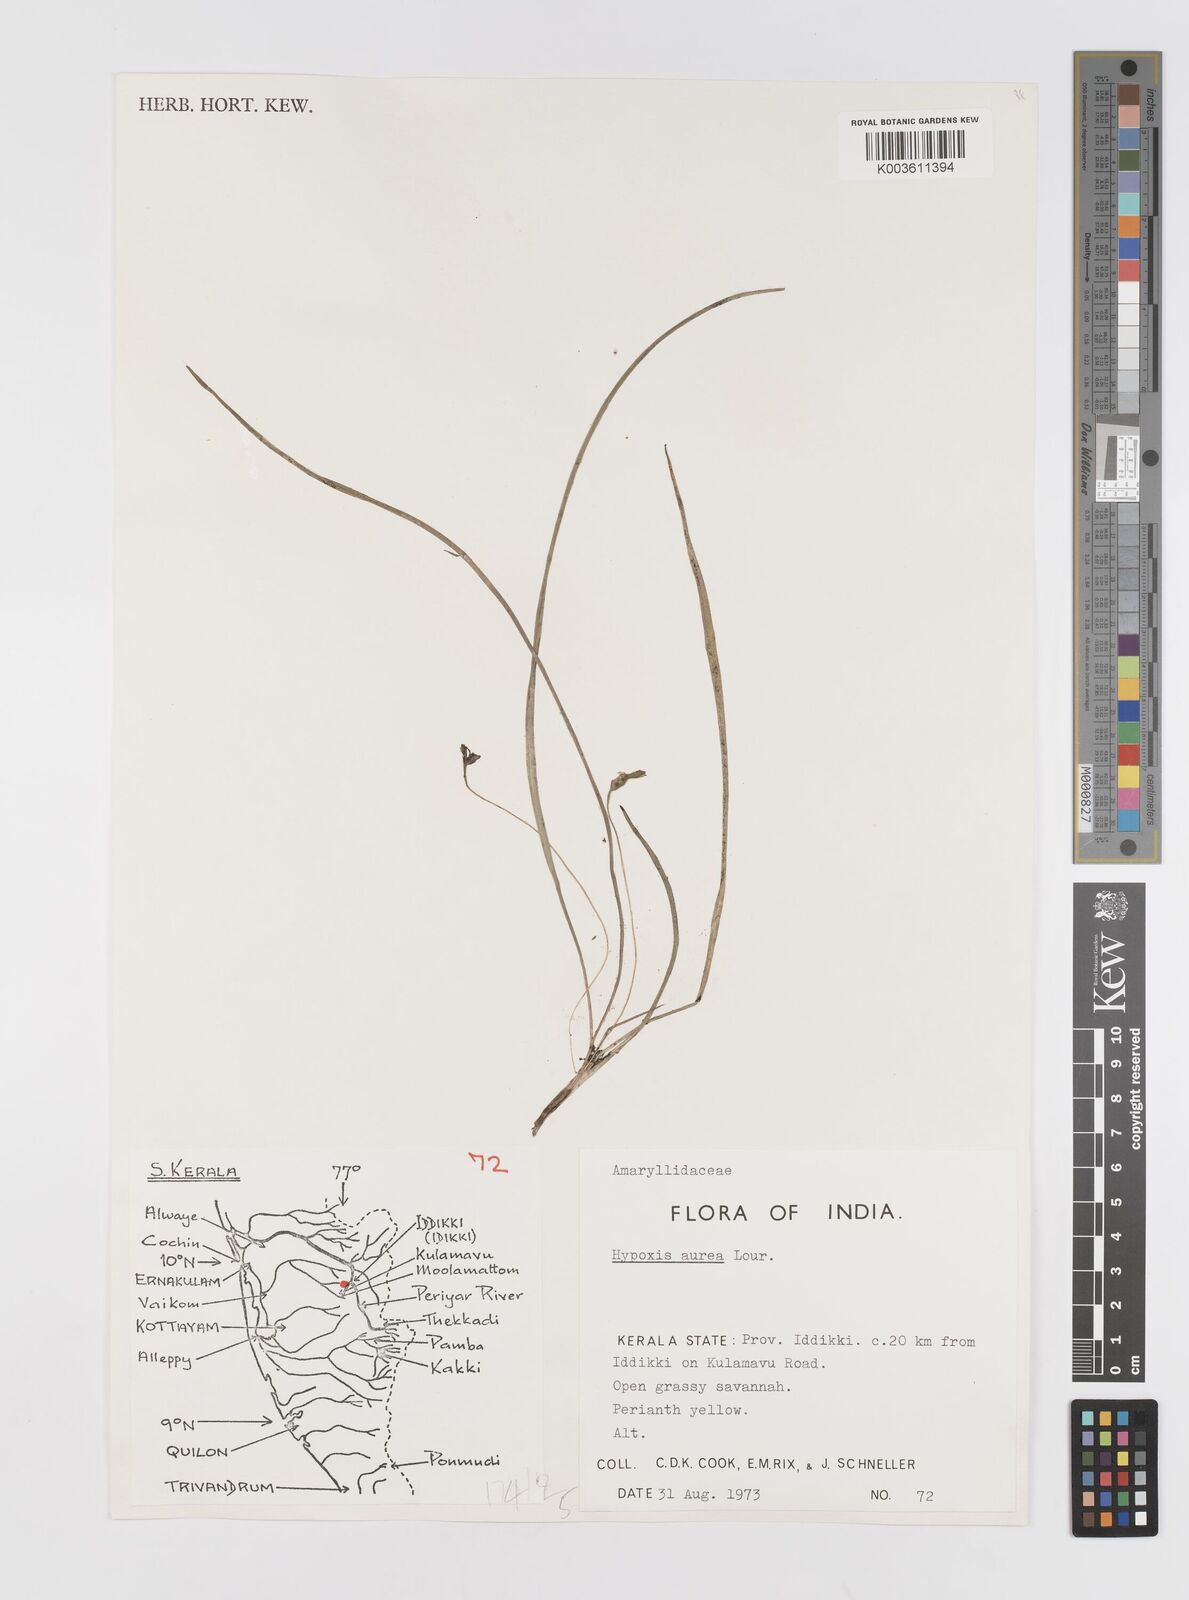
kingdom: Plantae
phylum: Tracheophyta
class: Liliopsida
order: Asparagales
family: Hypoxidaceae
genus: Hypoxis
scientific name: Hypoxis aurea
